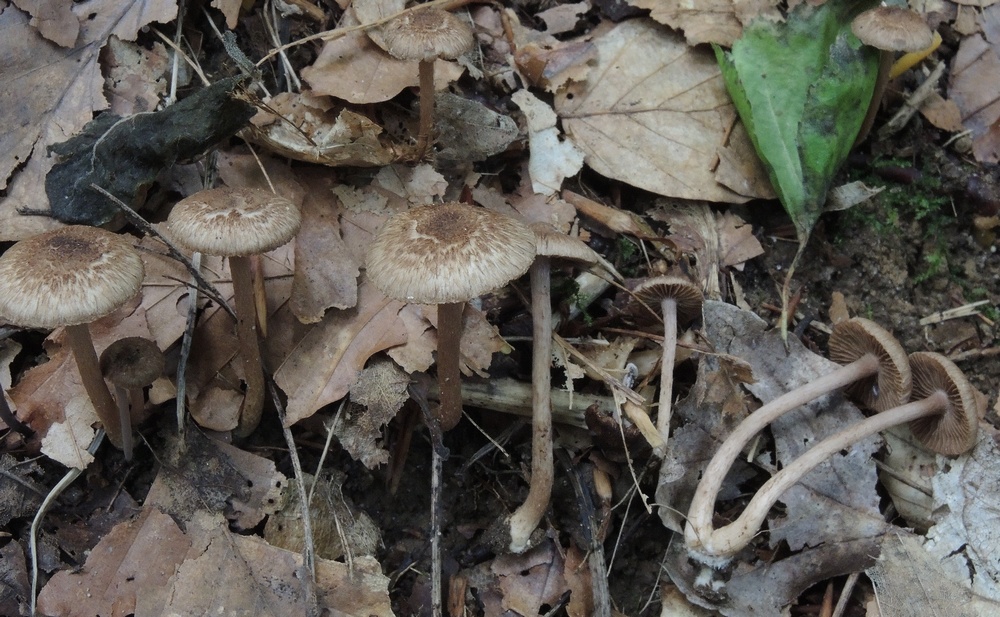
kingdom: Fungi
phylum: Basidiomycota
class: Agaricomycetes
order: Agaricales
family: Inocybaceae
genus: Inocybe
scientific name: Inocybe
